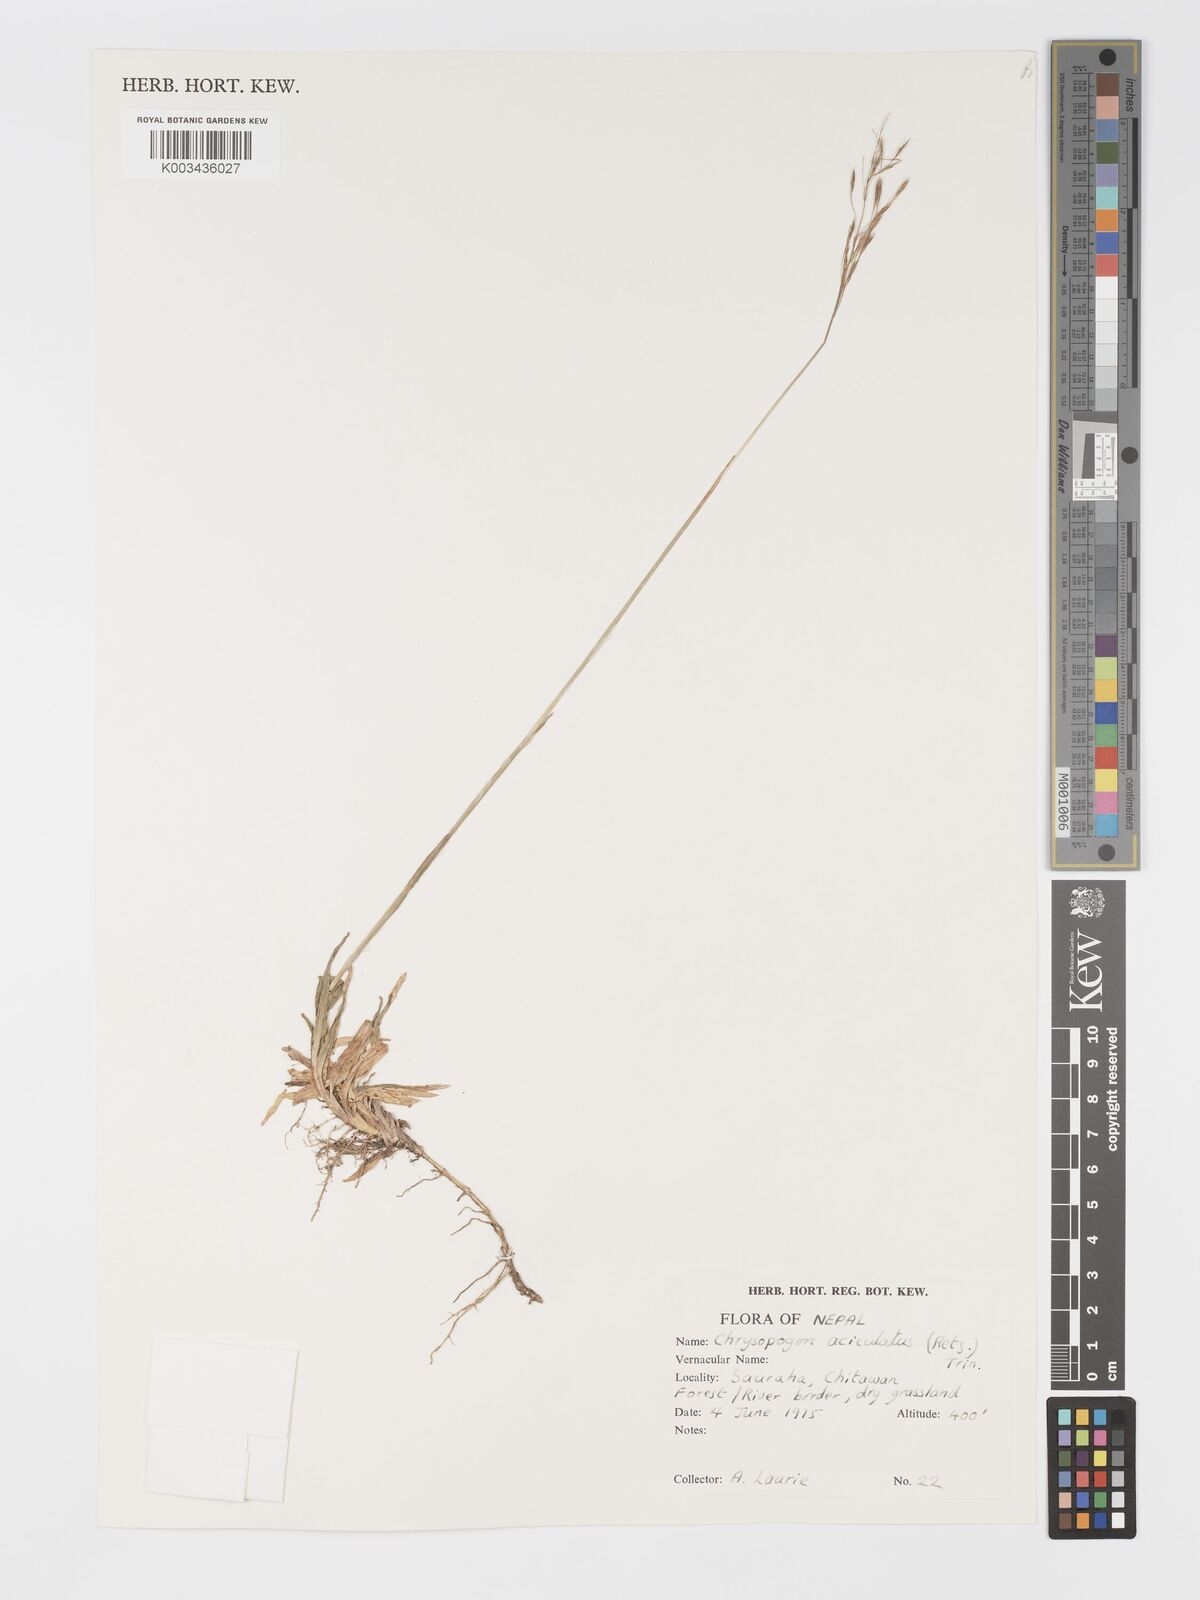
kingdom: Plantae
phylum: Tracheophyta
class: Liliopsida
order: Poales
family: Poaceae
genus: Chrysopogon
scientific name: Chrysopogon aciculatus
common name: Pilipiliula
